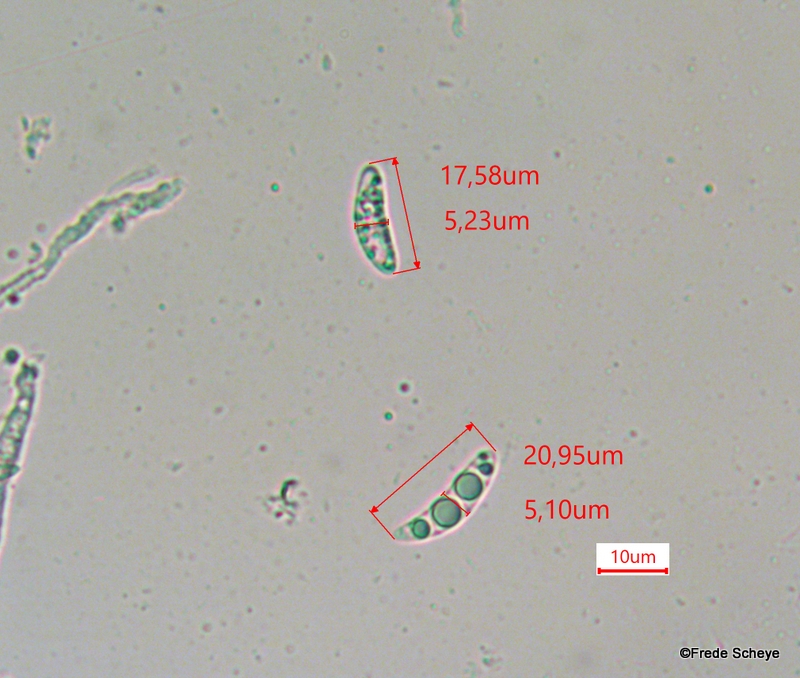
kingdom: Fungi
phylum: Ascomycota
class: Leotiomycetes
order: Helotiales
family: Hyaloscyphaceae
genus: Polydesmia
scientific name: Polydesmia pruinosa
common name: dunskive
